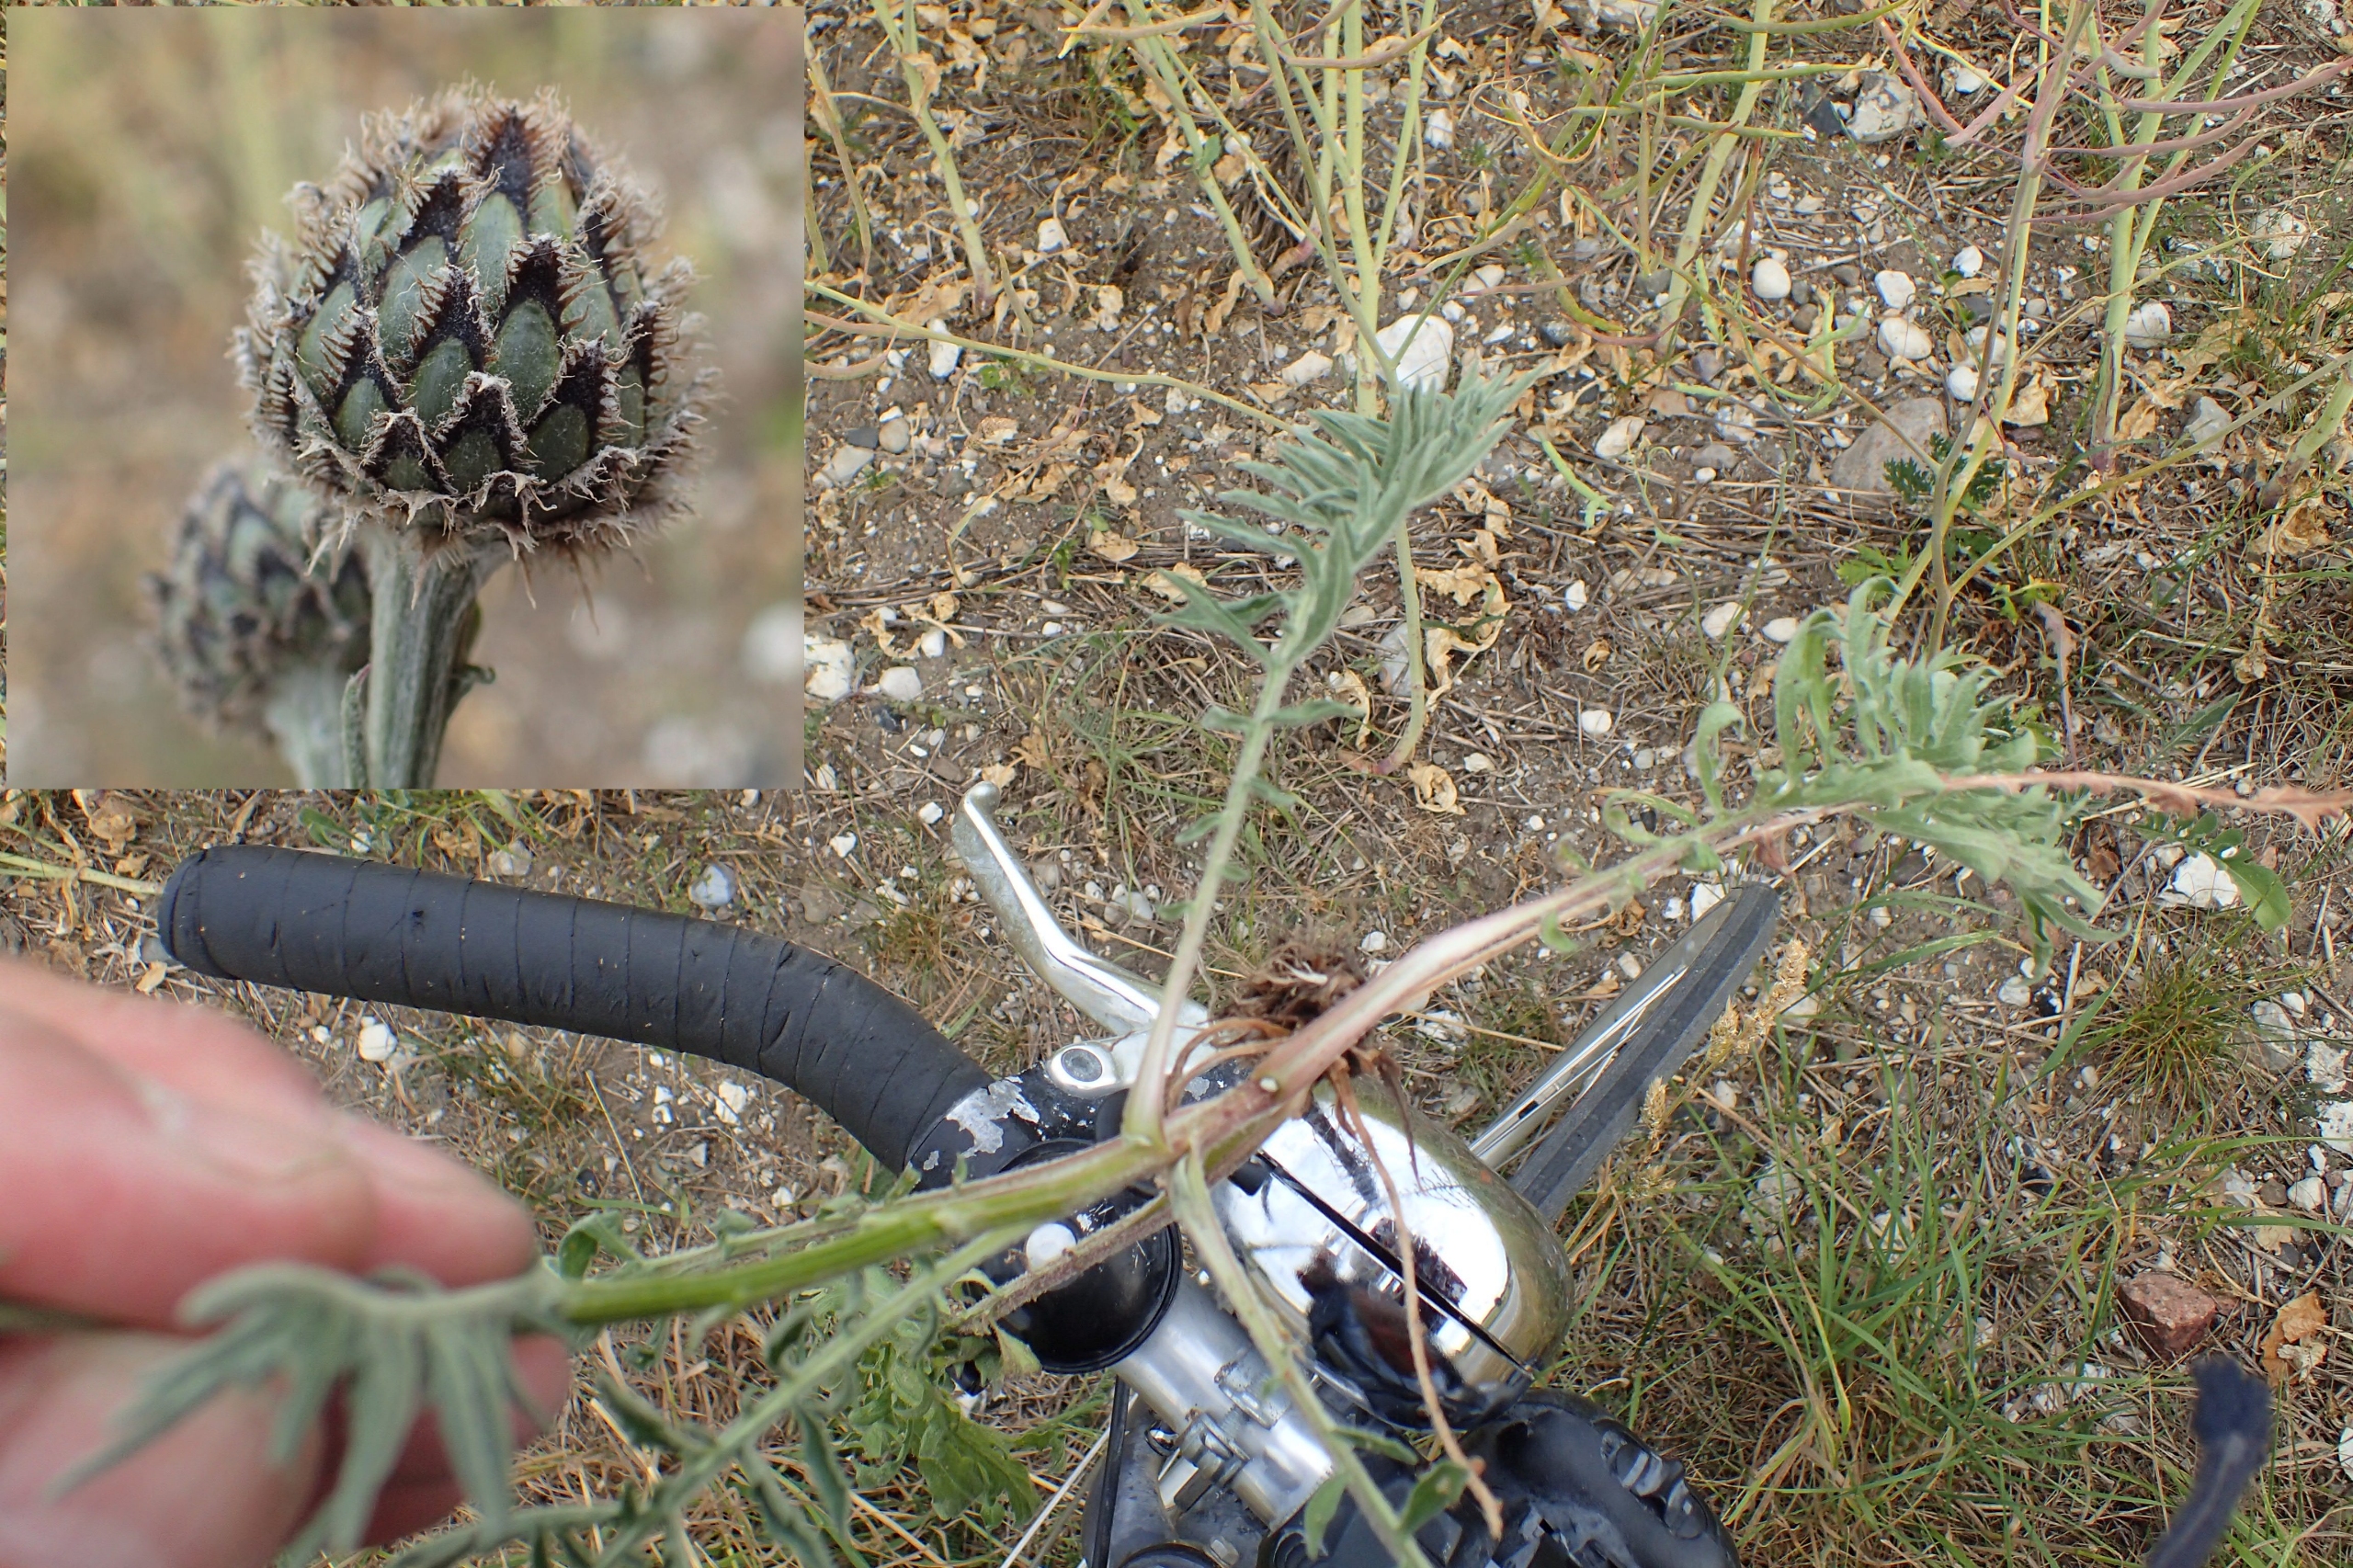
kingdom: Plantae
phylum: Tracheophyta
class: Magnoliopsida
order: Asterales
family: Asteraceae
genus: Centaurea
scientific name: Centaurea scabiosa
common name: Stor knopurt
